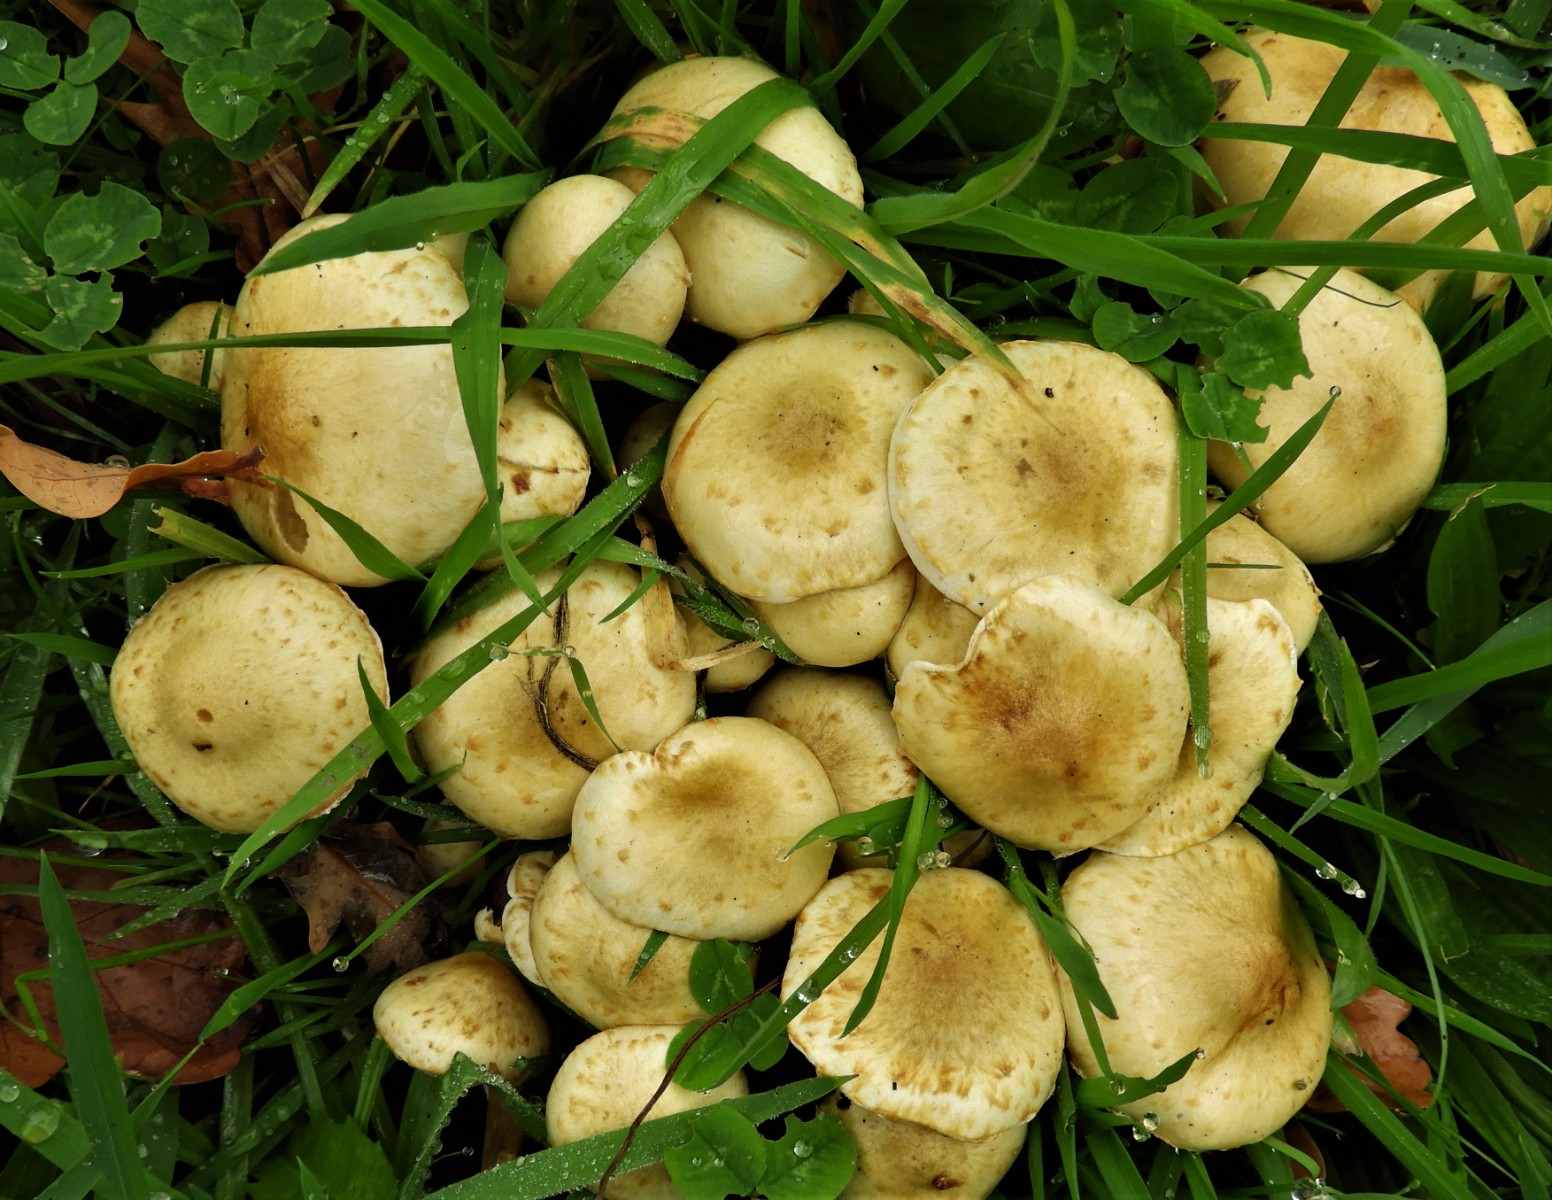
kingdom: Fungi
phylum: Basidiomycota
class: Agaricomycetes
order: Agaricales
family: Strophariaceae
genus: Pholiota
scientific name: Pholiota gummosa
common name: grøngul skælhat
